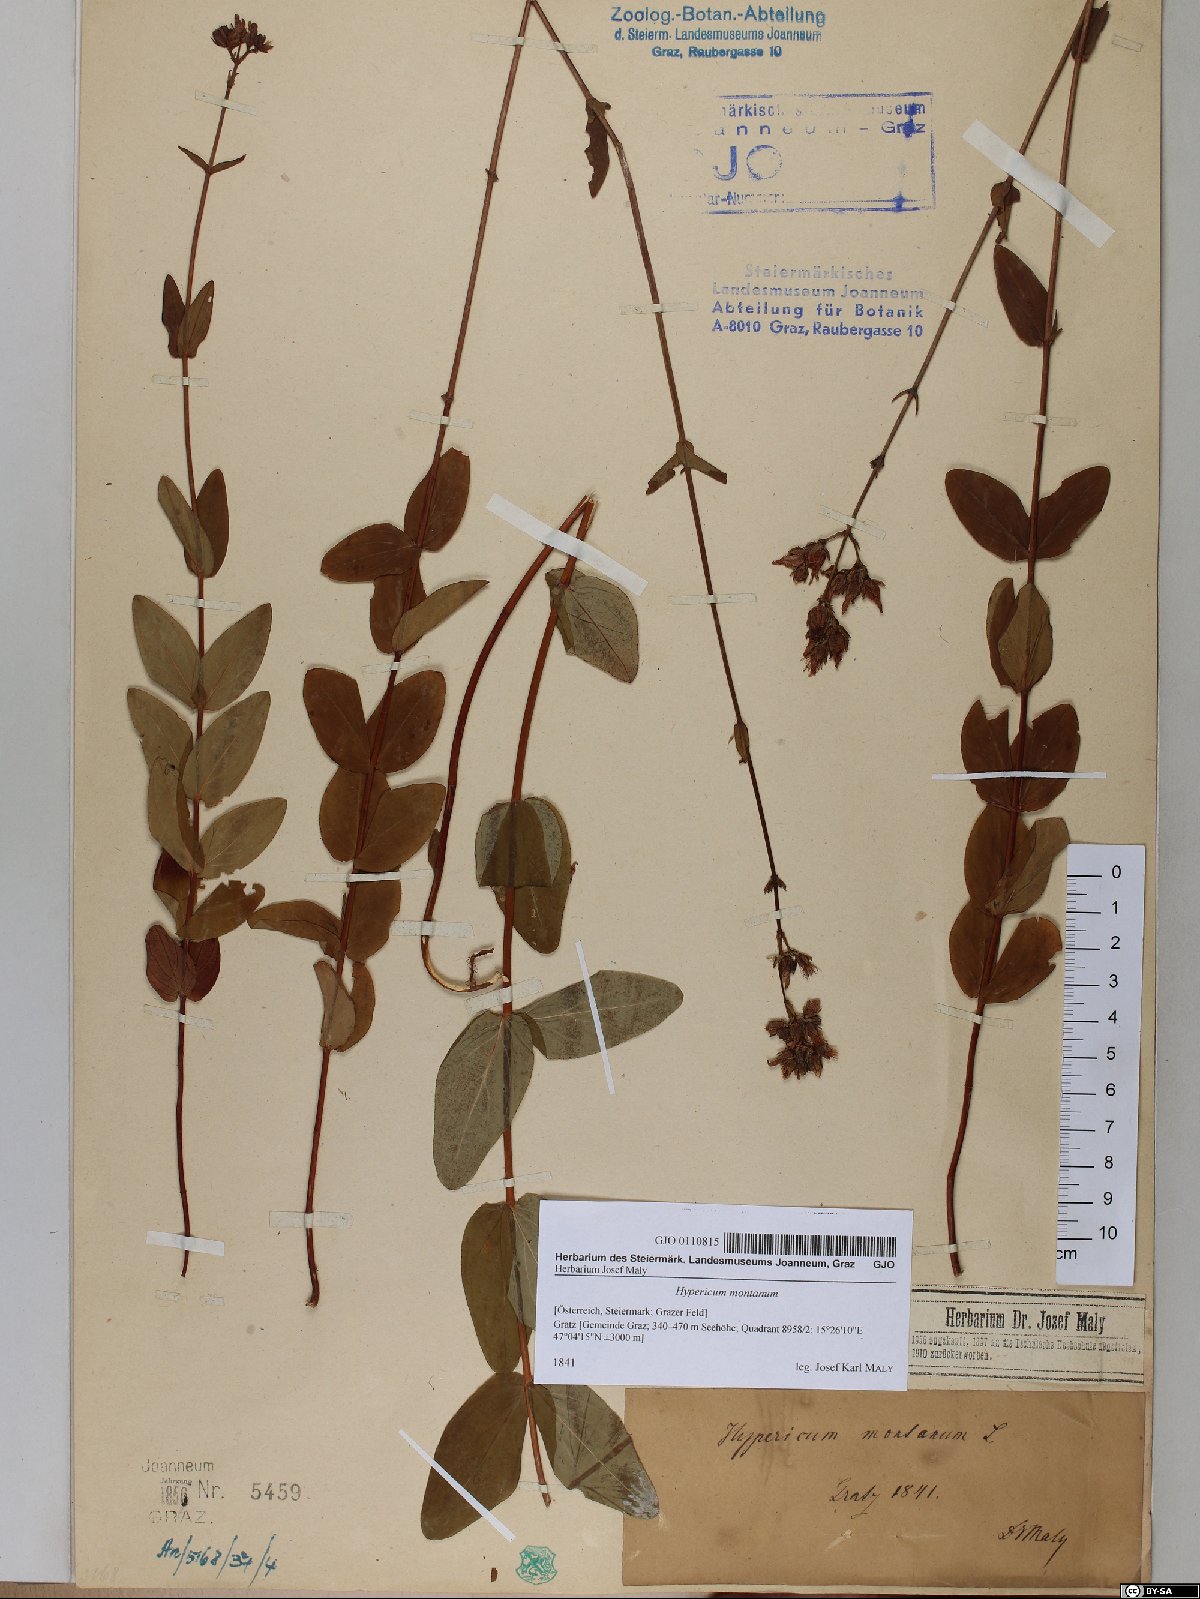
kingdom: Plantae
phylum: Tracheophyta
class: Magnoliopsida
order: Malpighiales
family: Hypericaceae
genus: Hypericum
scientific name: Hypericum montanum
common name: Pale st. john's-wort
